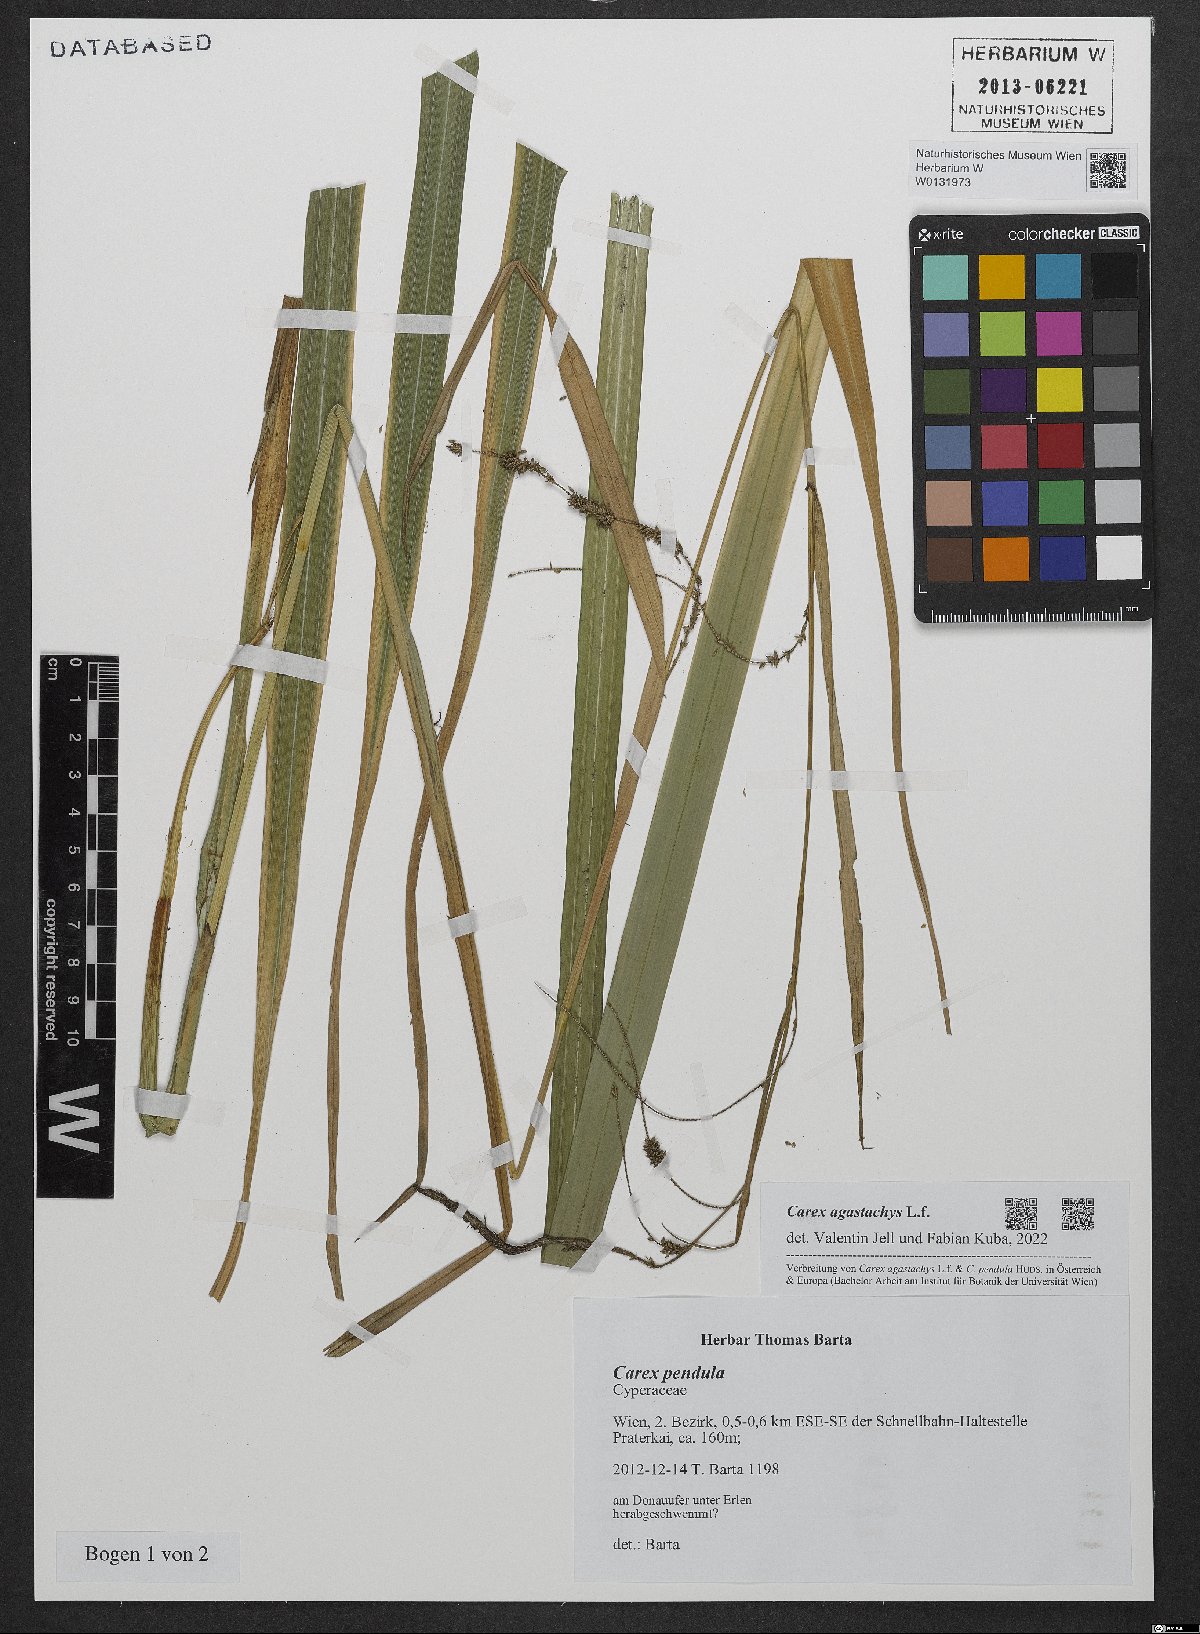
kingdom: Plantae
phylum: Tracheophyta
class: Liliopsida
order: Poales
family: Cyperaceae
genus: Carex
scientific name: Carex agastachys
